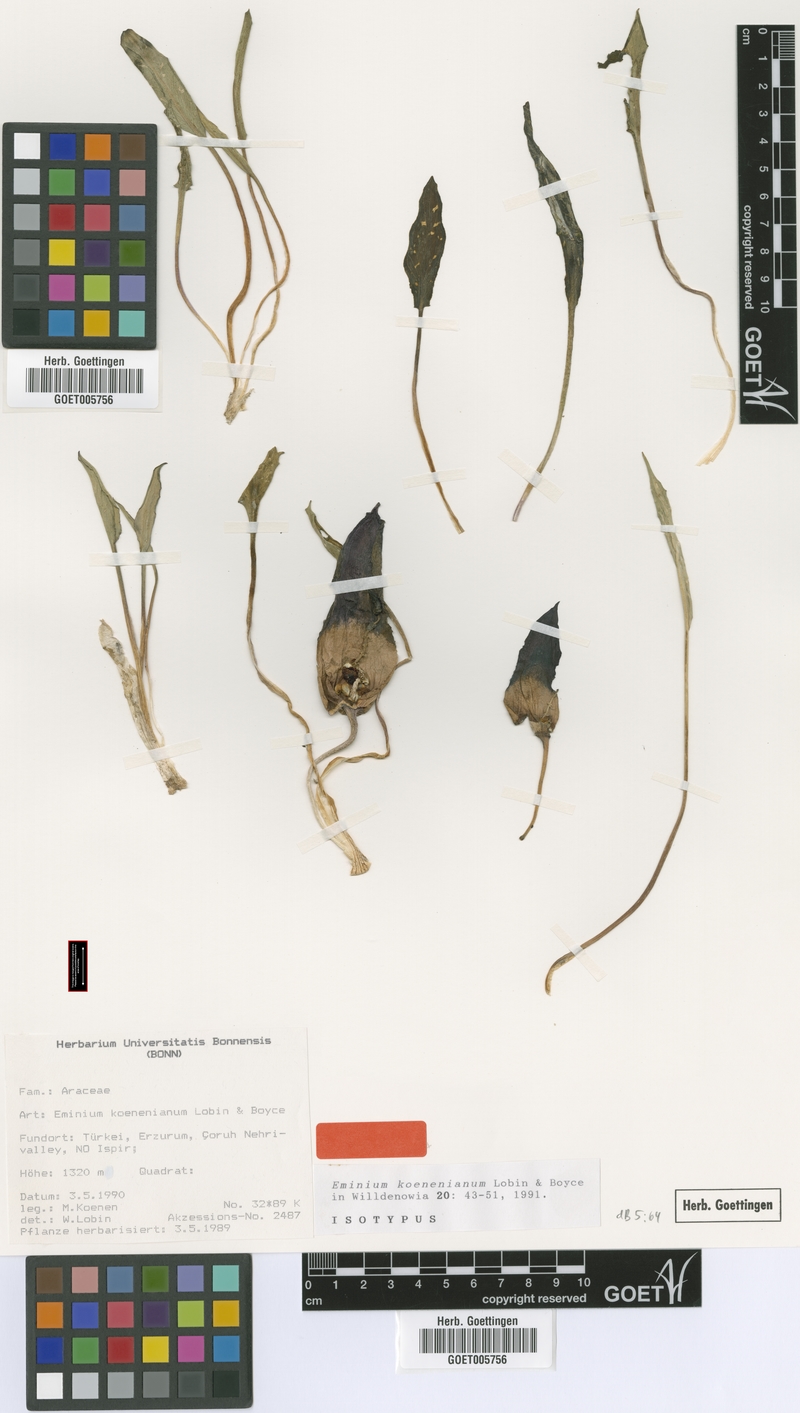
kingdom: Plantae
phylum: Tracheophyta
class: Liliopsida
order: Alismatales
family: Araceae
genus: Eminium
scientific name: Eminium koenenianum
